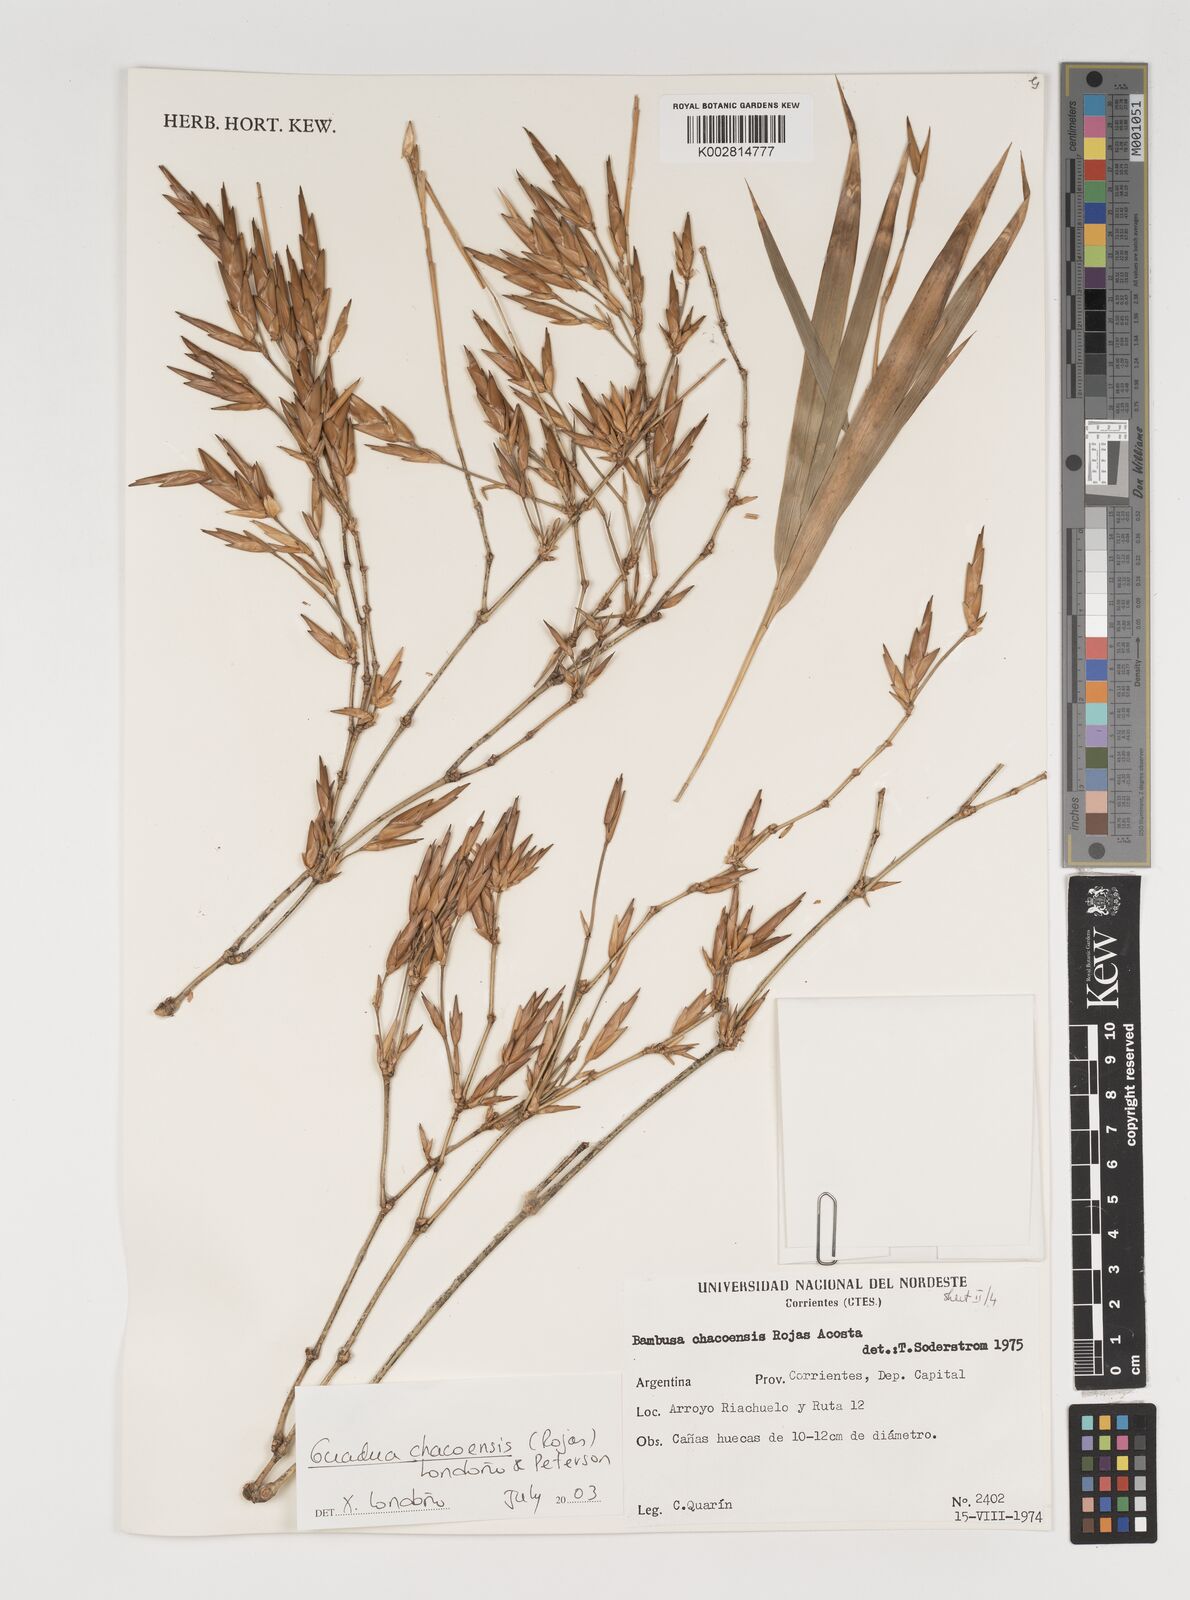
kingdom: Plantae
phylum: Tracheophyta
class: Liliopsida
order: Poales
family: Poaceae
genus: Guadua
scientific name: Guadua chacoensis
